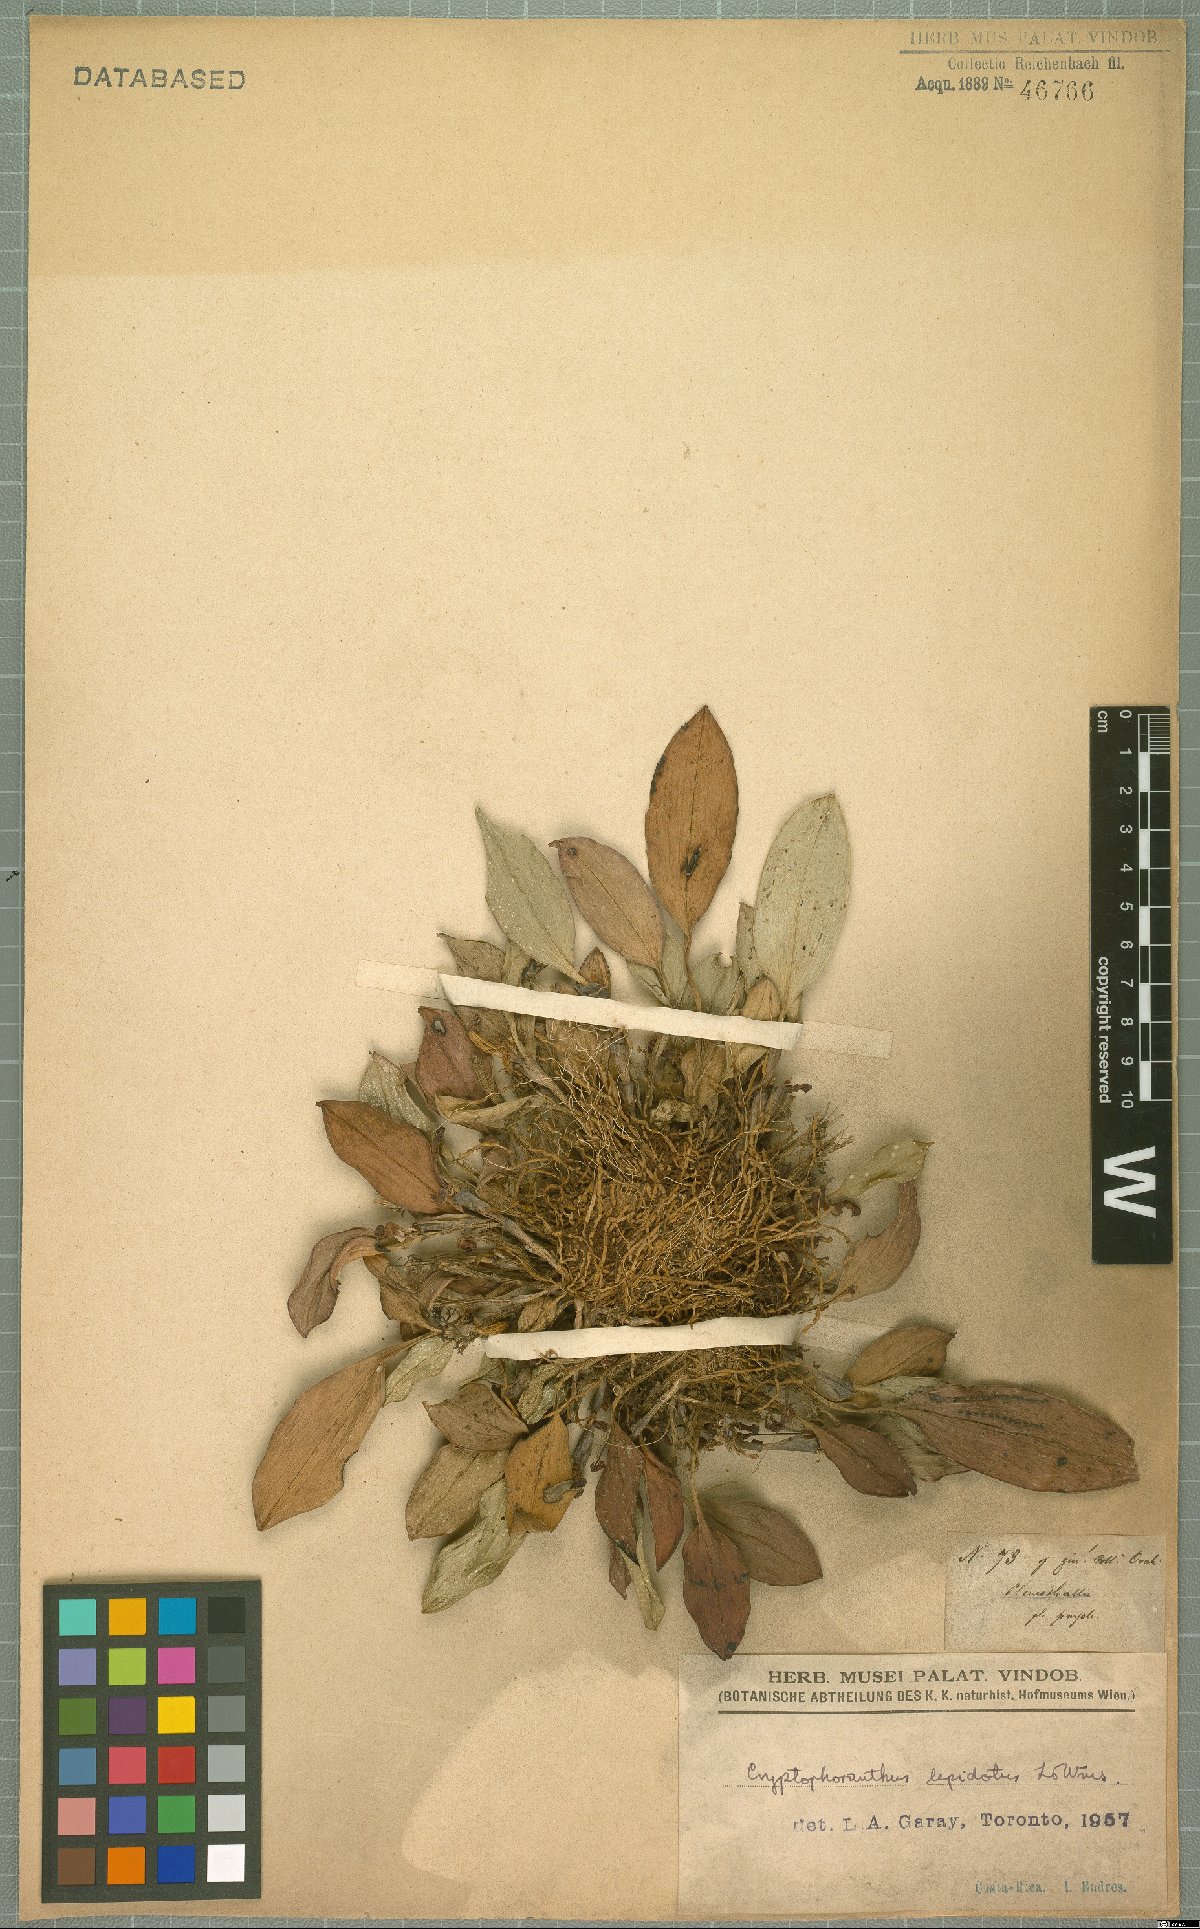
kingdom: Plantae
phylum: Tracheophyta
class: Liliopsida
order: Asparagales
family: Orchidaceae
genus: Zootrophion
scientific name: Zootrophion gracilentum
